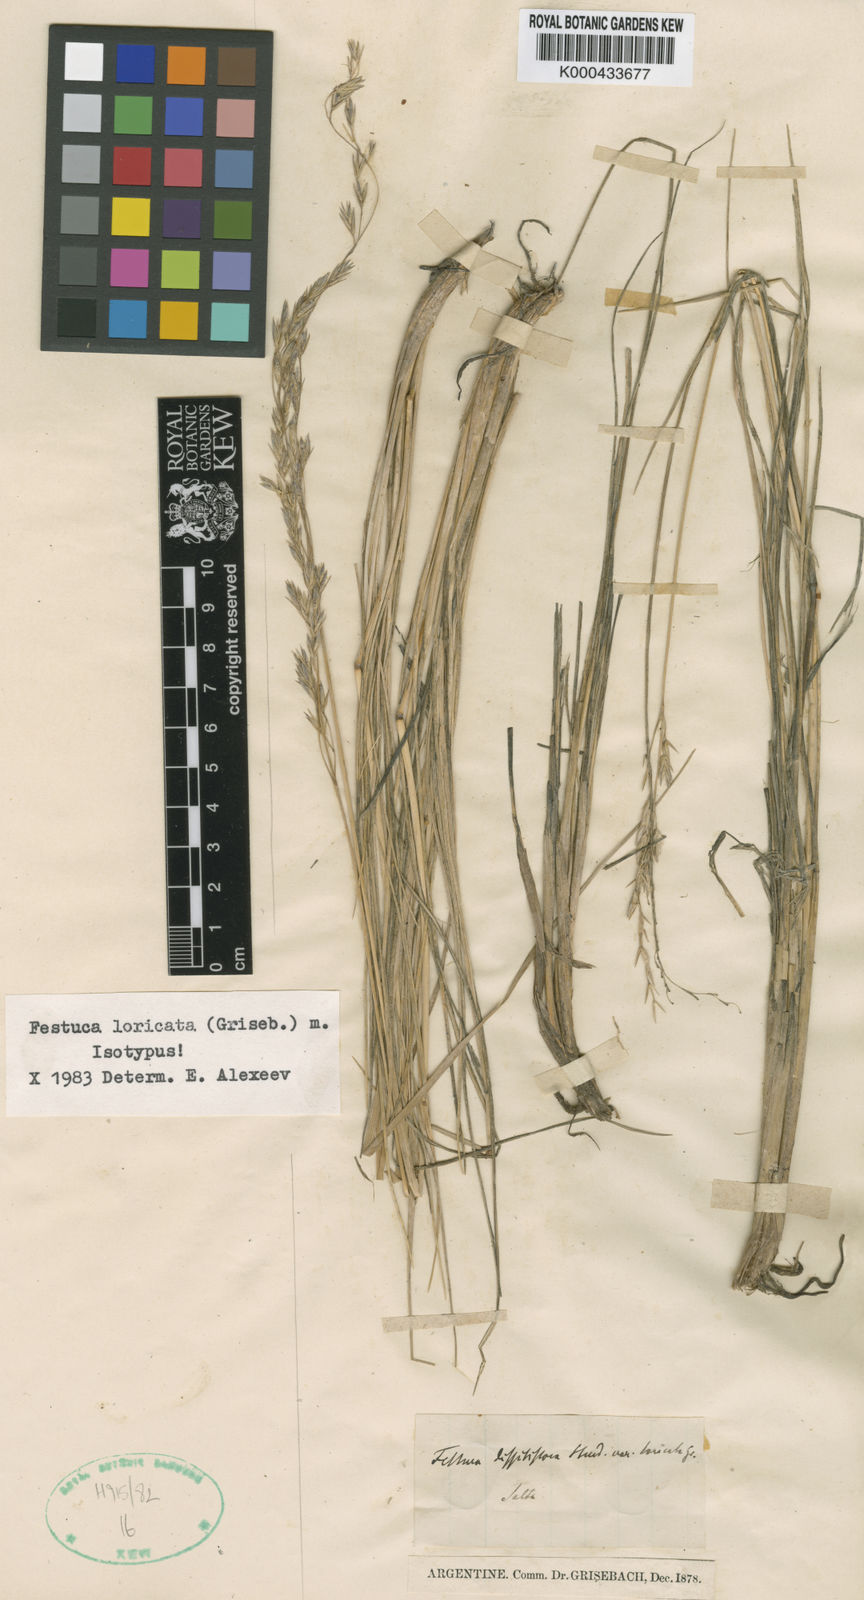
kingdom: Plantae
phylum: Tracheophyta
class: Liliopsida
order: Poales
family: Poaceae
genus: Festuca
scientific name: Festuca fiebrigii
